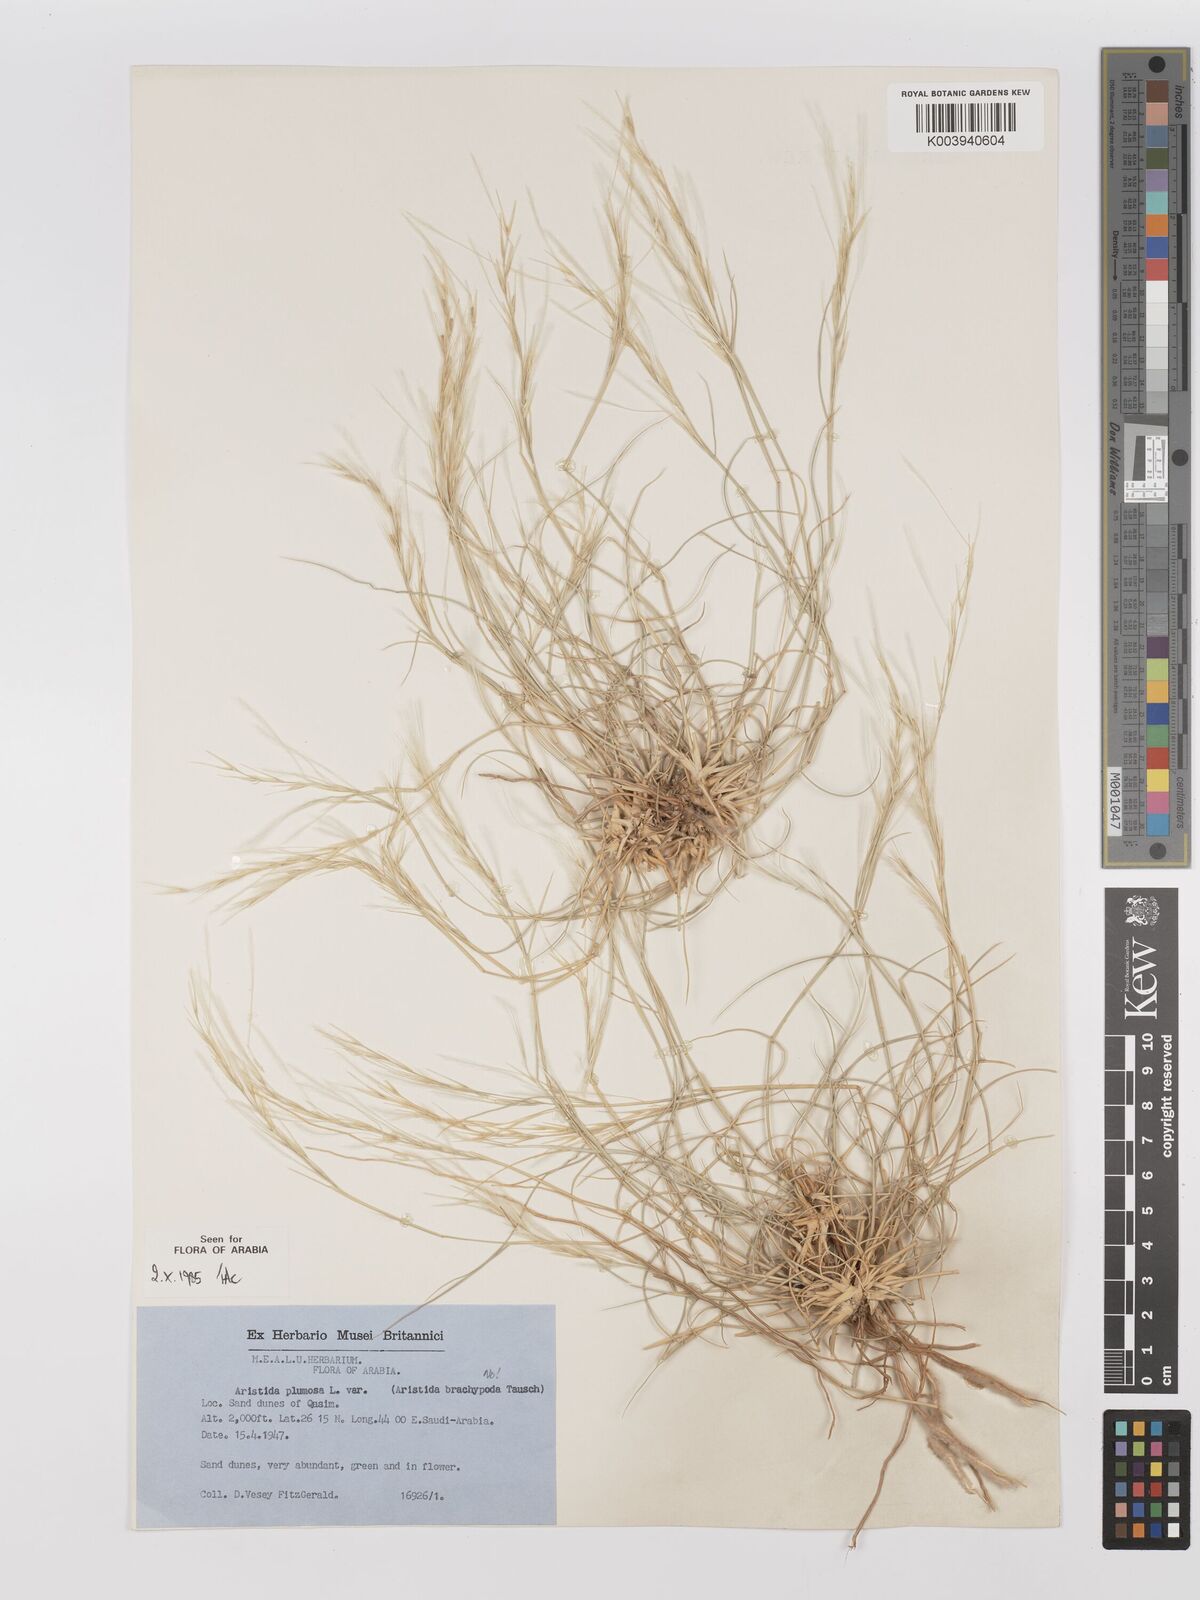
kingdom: Plantae
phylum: Tracheophyta
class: Liliopsida
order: Poales
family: Poaceae
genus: Stipagrostis
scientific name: Stipagrostis plumosa
